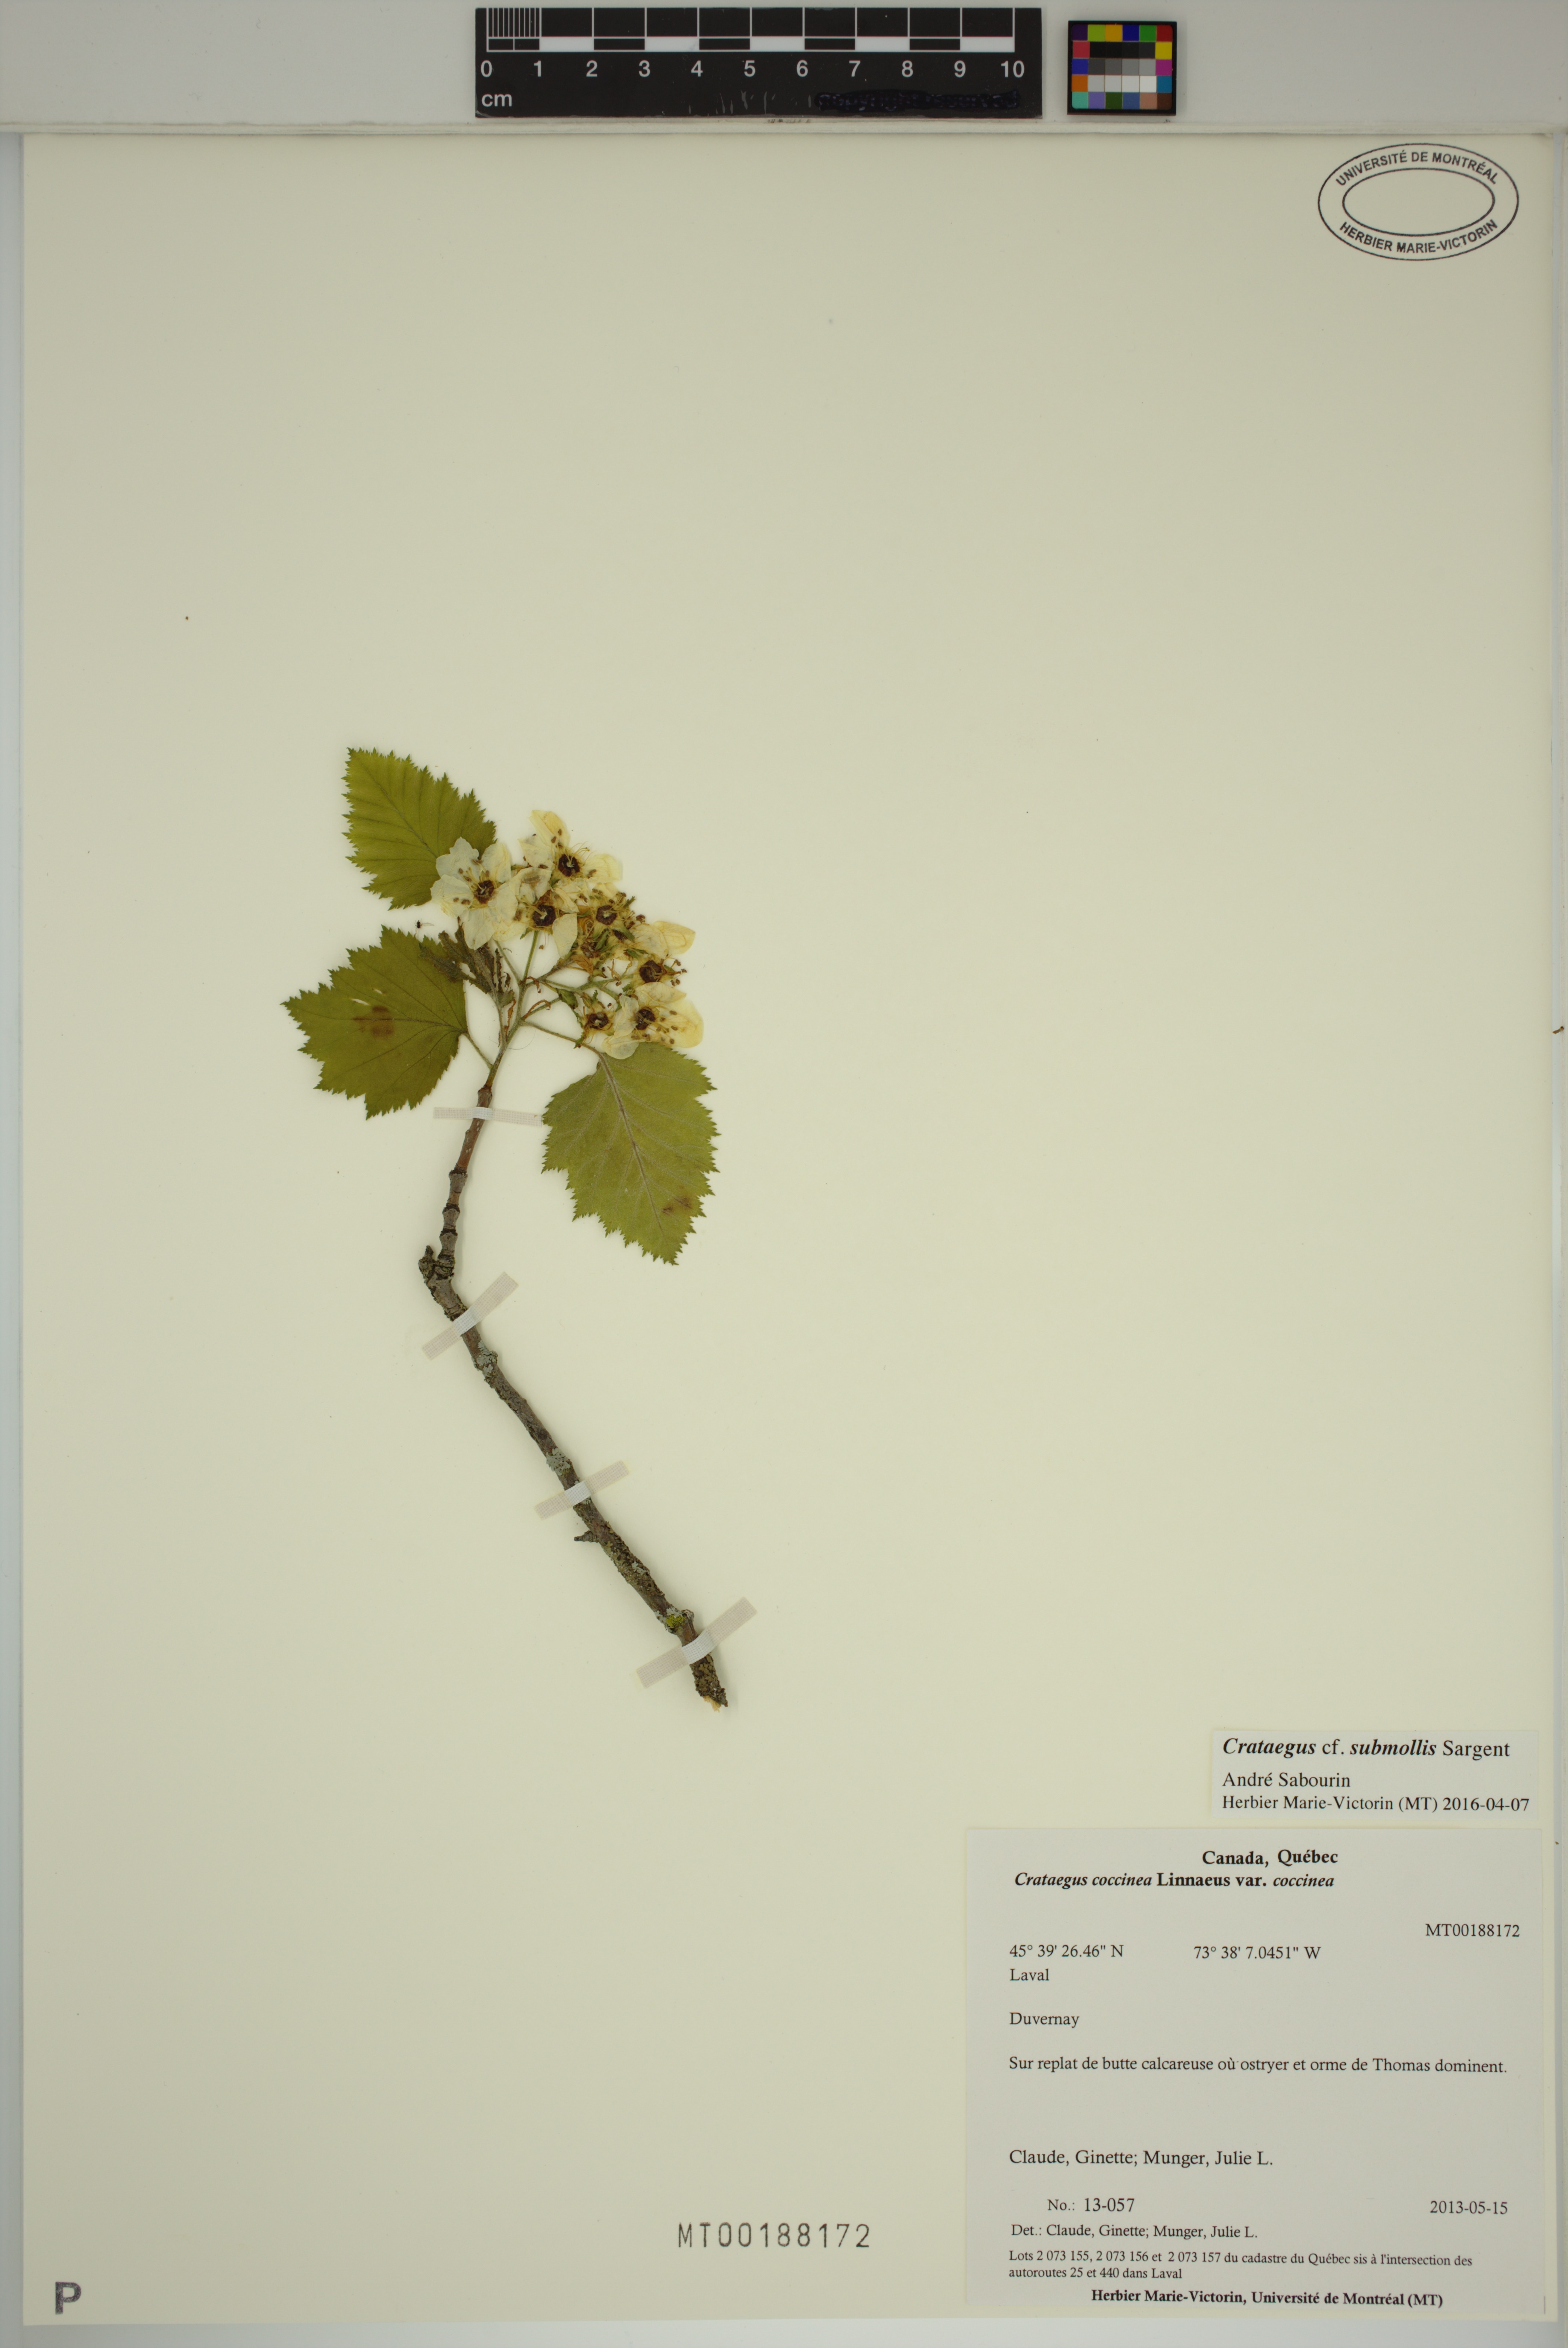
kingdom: Plantae
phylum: Tracheophyta
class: Magnoliopsida
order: Rosales
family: Rosaceae
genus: Crataegus
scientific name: Crataegus submollis
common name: Hairy cockspurthorn
